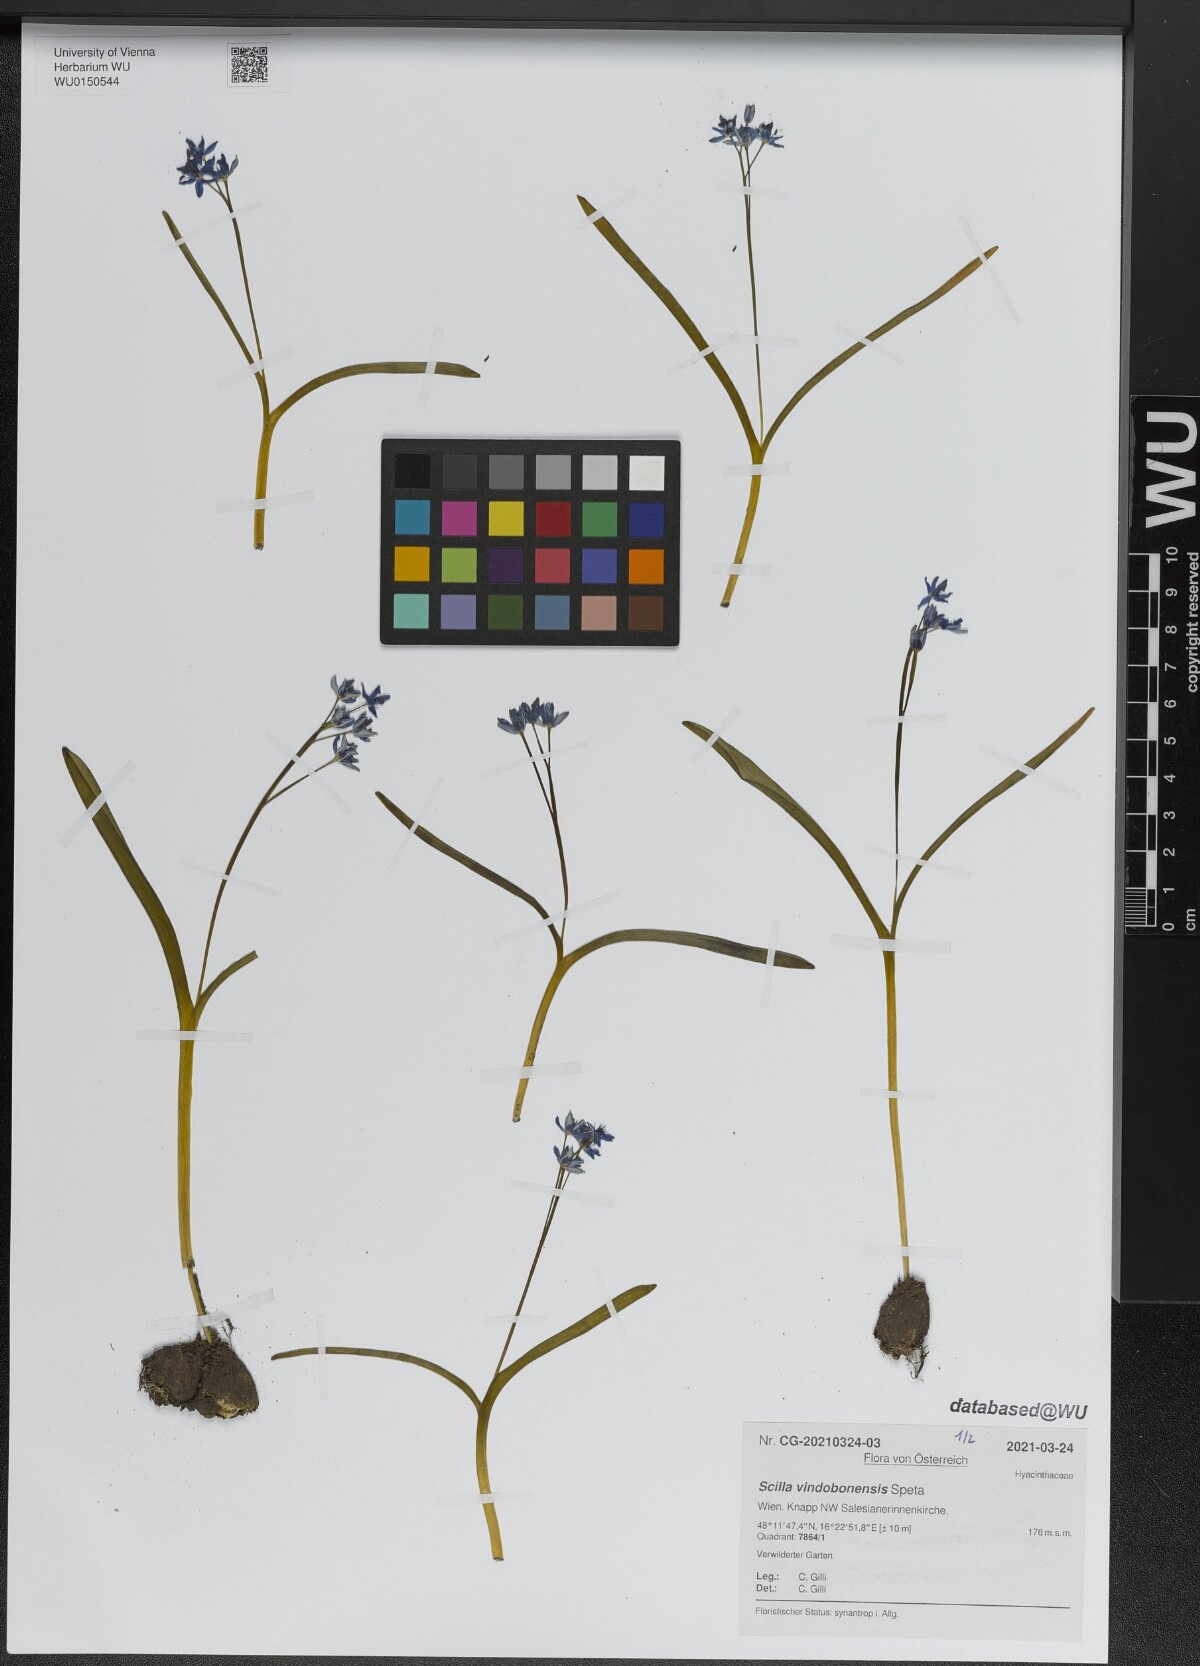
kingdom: Plantae
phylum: Tracheophyta
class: Liliopsida
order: Asparagales
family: Asparagaceae
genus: Scilla
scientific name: Scilla vindobonensis
